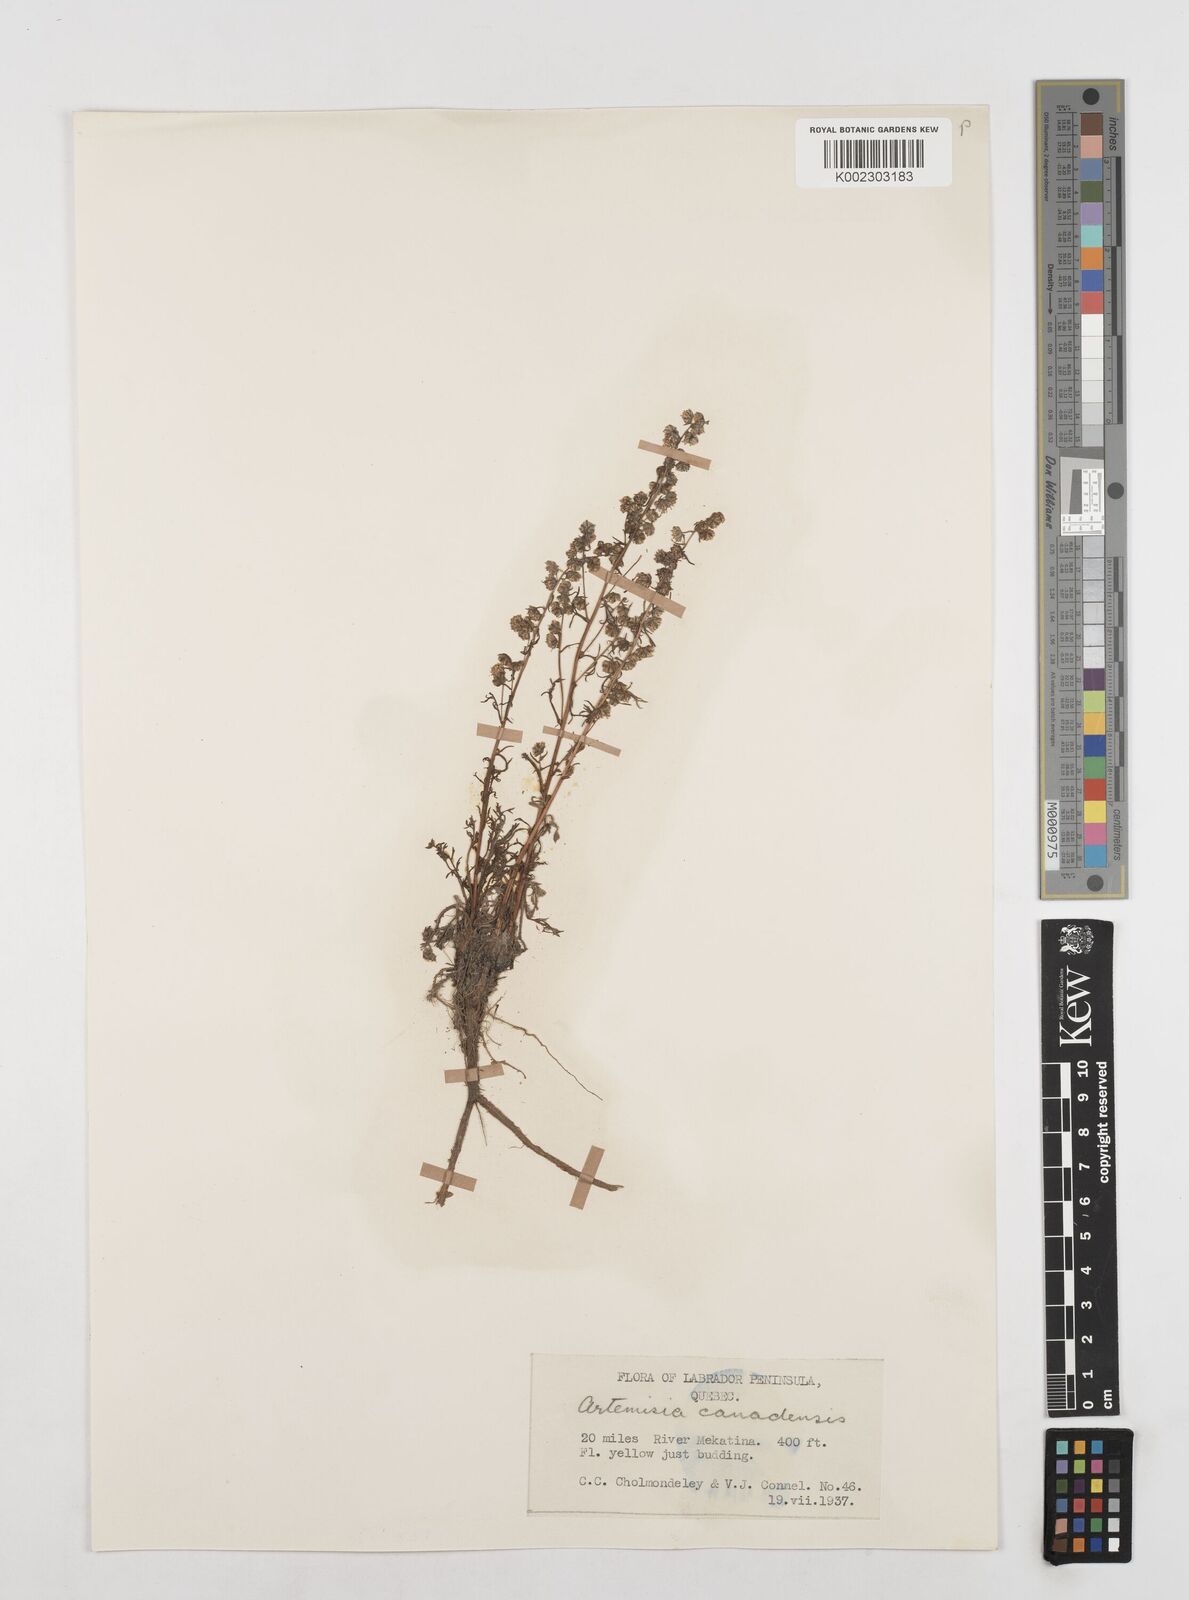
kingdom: Plantae
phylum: Tracheophyta
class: Magnoliopsida
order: Asterales
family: Asteraceae
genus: Artemisia
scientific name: Artemisia campestris
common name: Field wormwood
